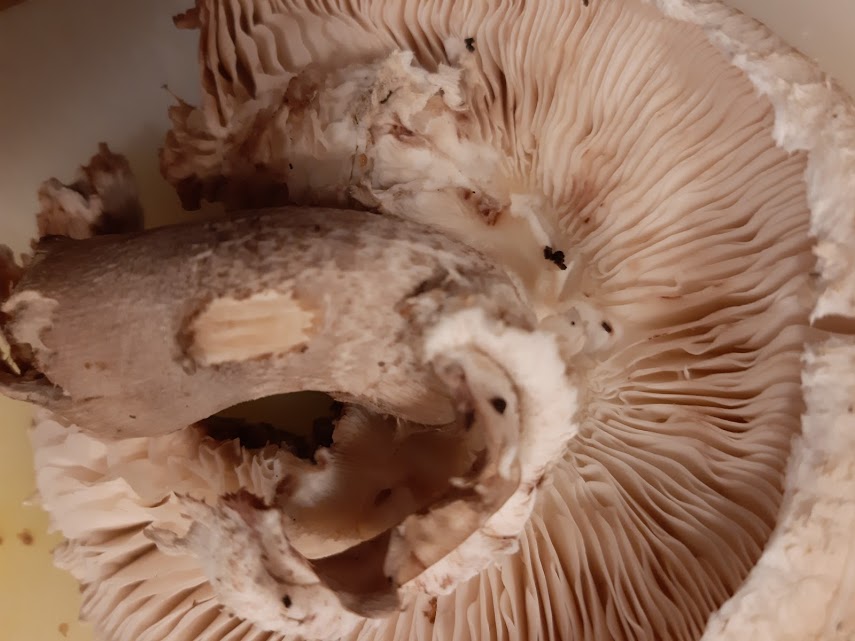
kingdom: Fungi
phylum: Basidiomycota
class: Agaricomycetes
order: Agaricales
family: Agaricaceae
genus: Macrolepiota
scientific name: Macrolepiota
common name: kæmpeparasolhat
